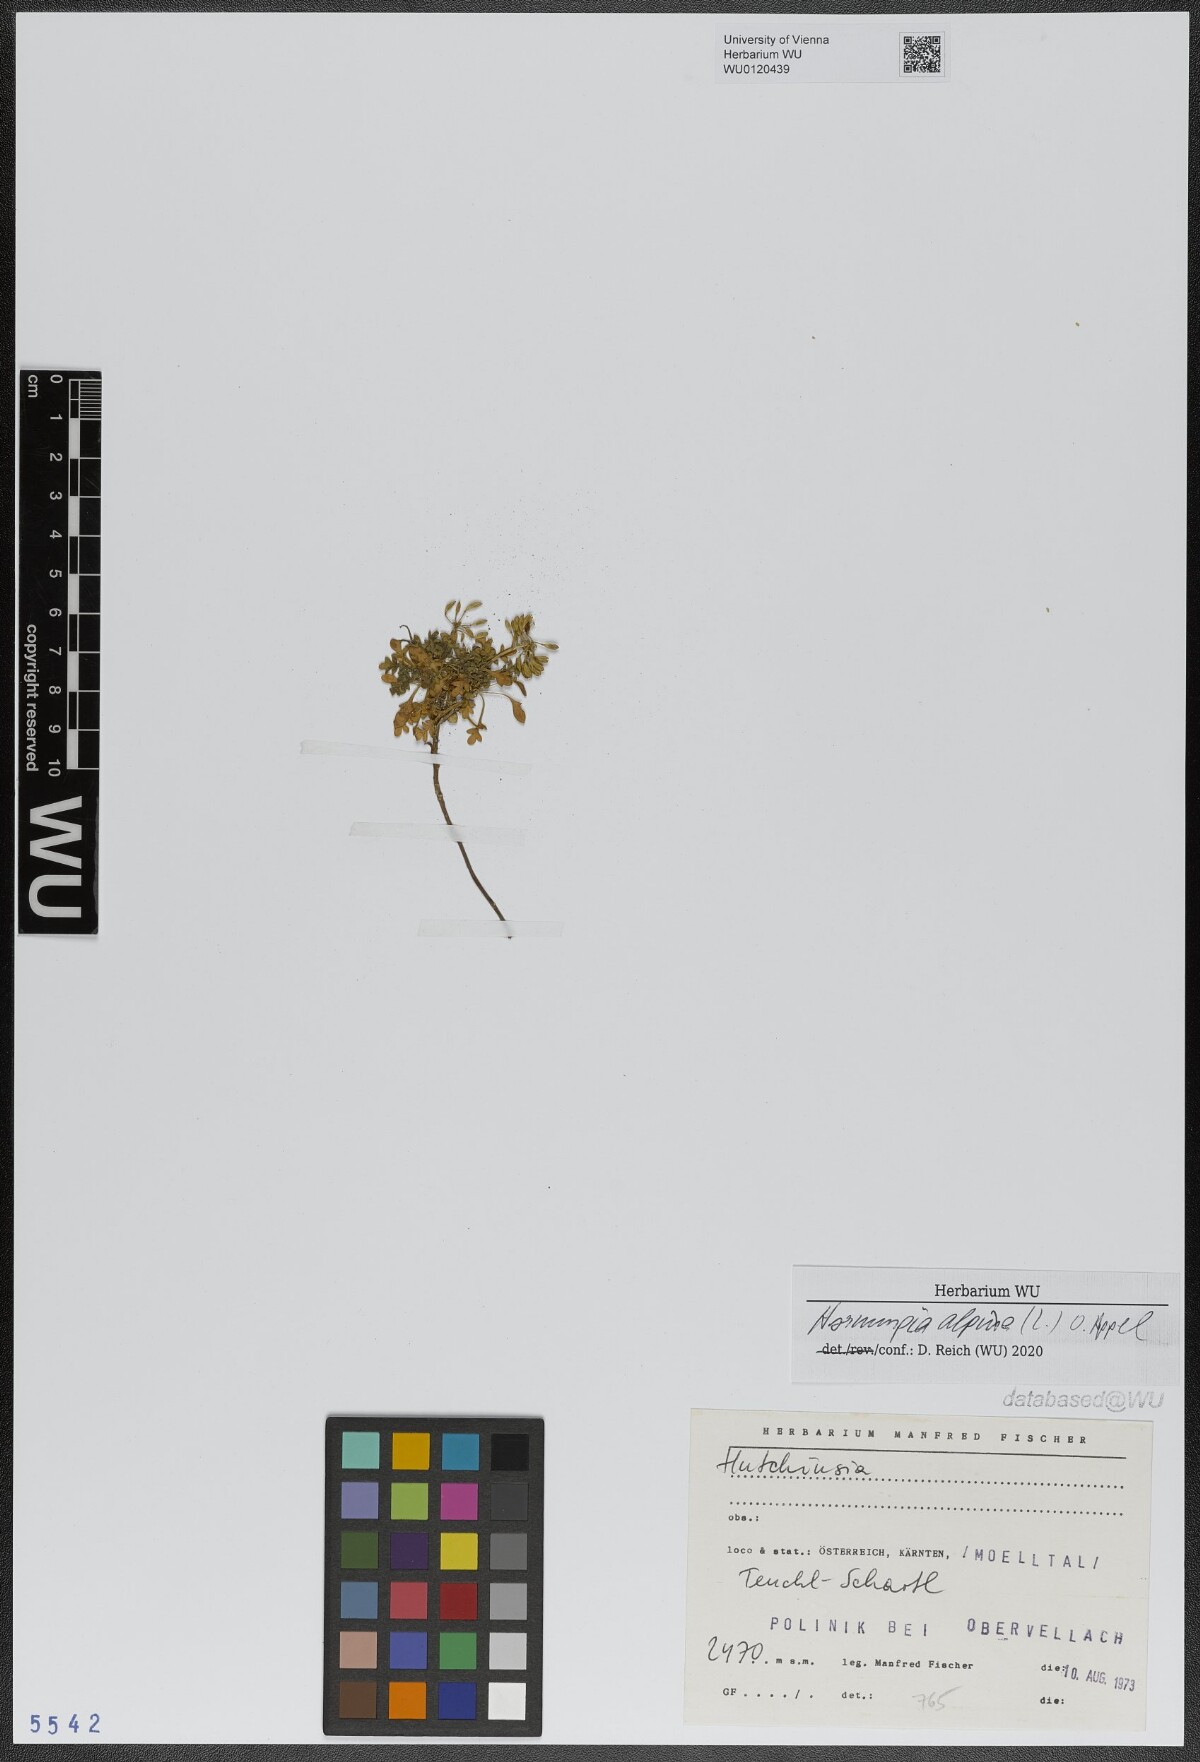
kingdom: Plantae
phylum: Tracheophyta
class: Magnoliopsida
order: Brassicales
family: Brassicaceae
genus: Hornungia
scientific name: Hornungia alpina
